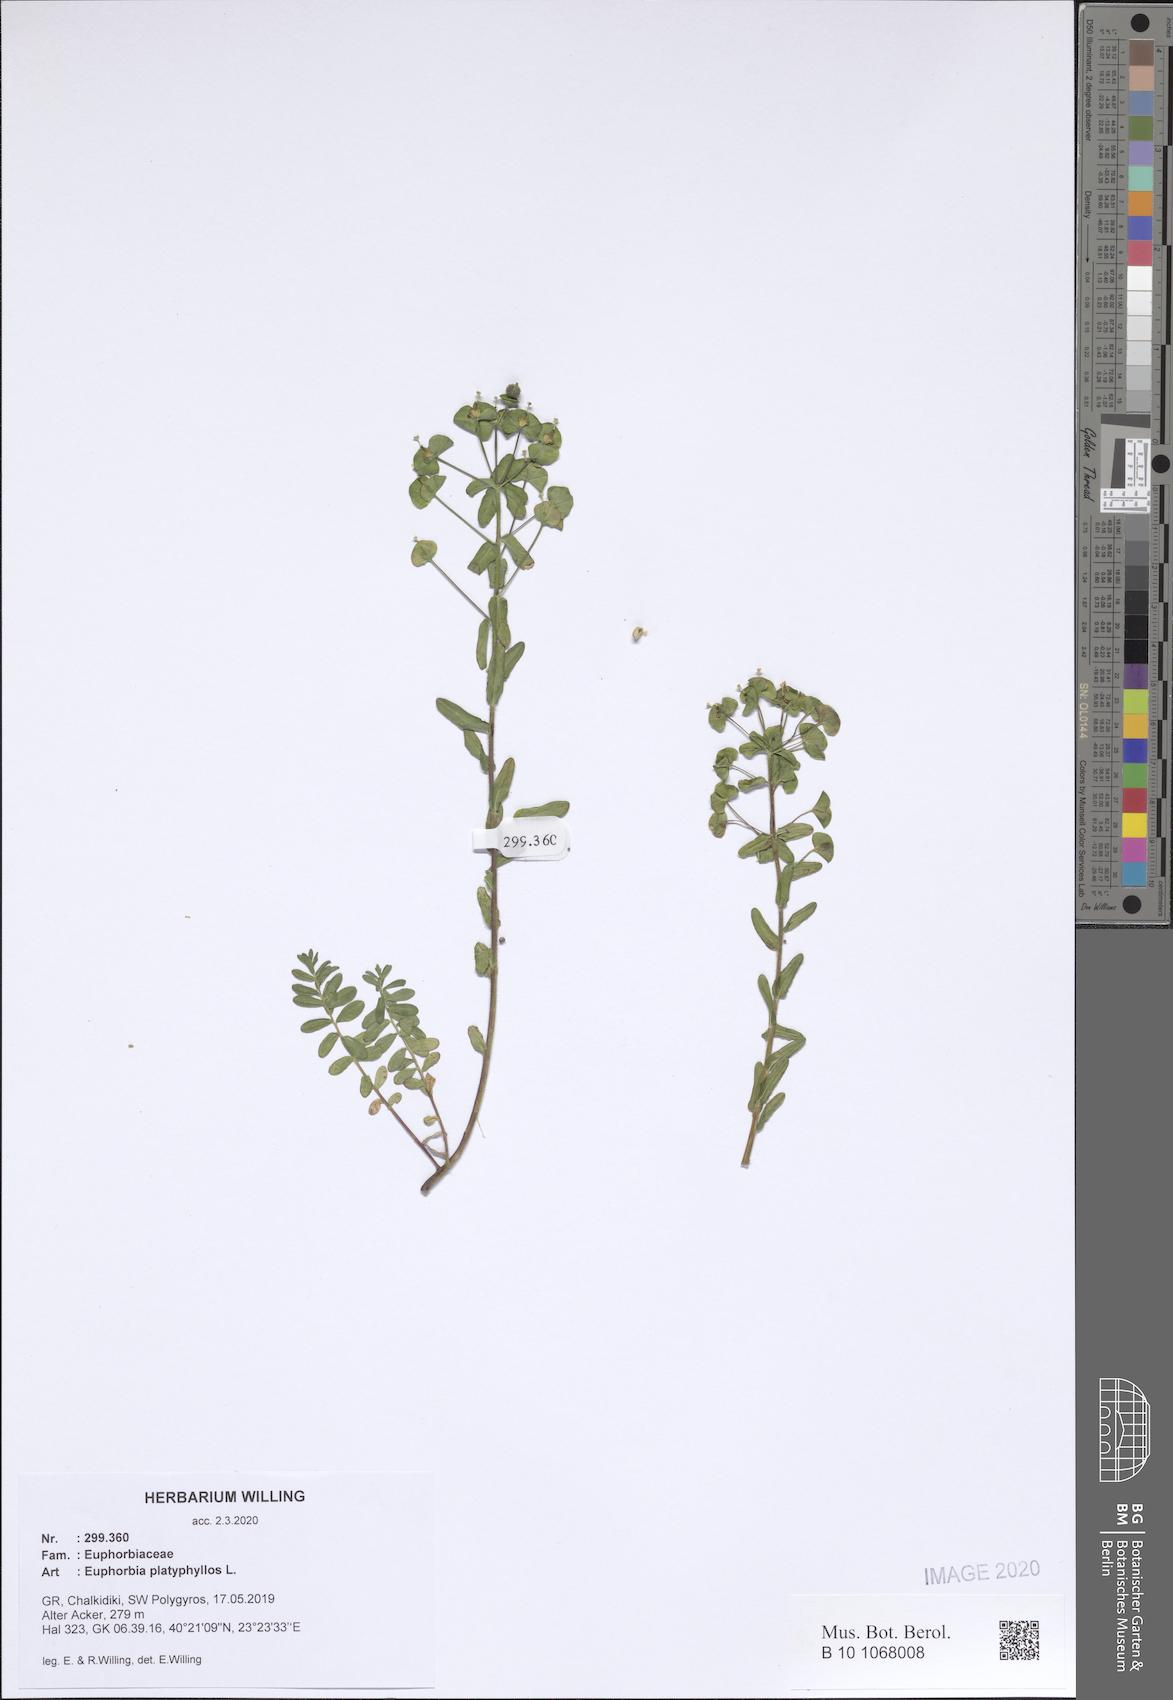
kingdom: Plantae
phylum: Tracheophyta
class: Magnoliopsida
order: Malpighiales
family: Euphorbiaceae
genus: Euphorbia
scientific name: Euphorbia platyphyllos
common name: Broad-leaved spurge
